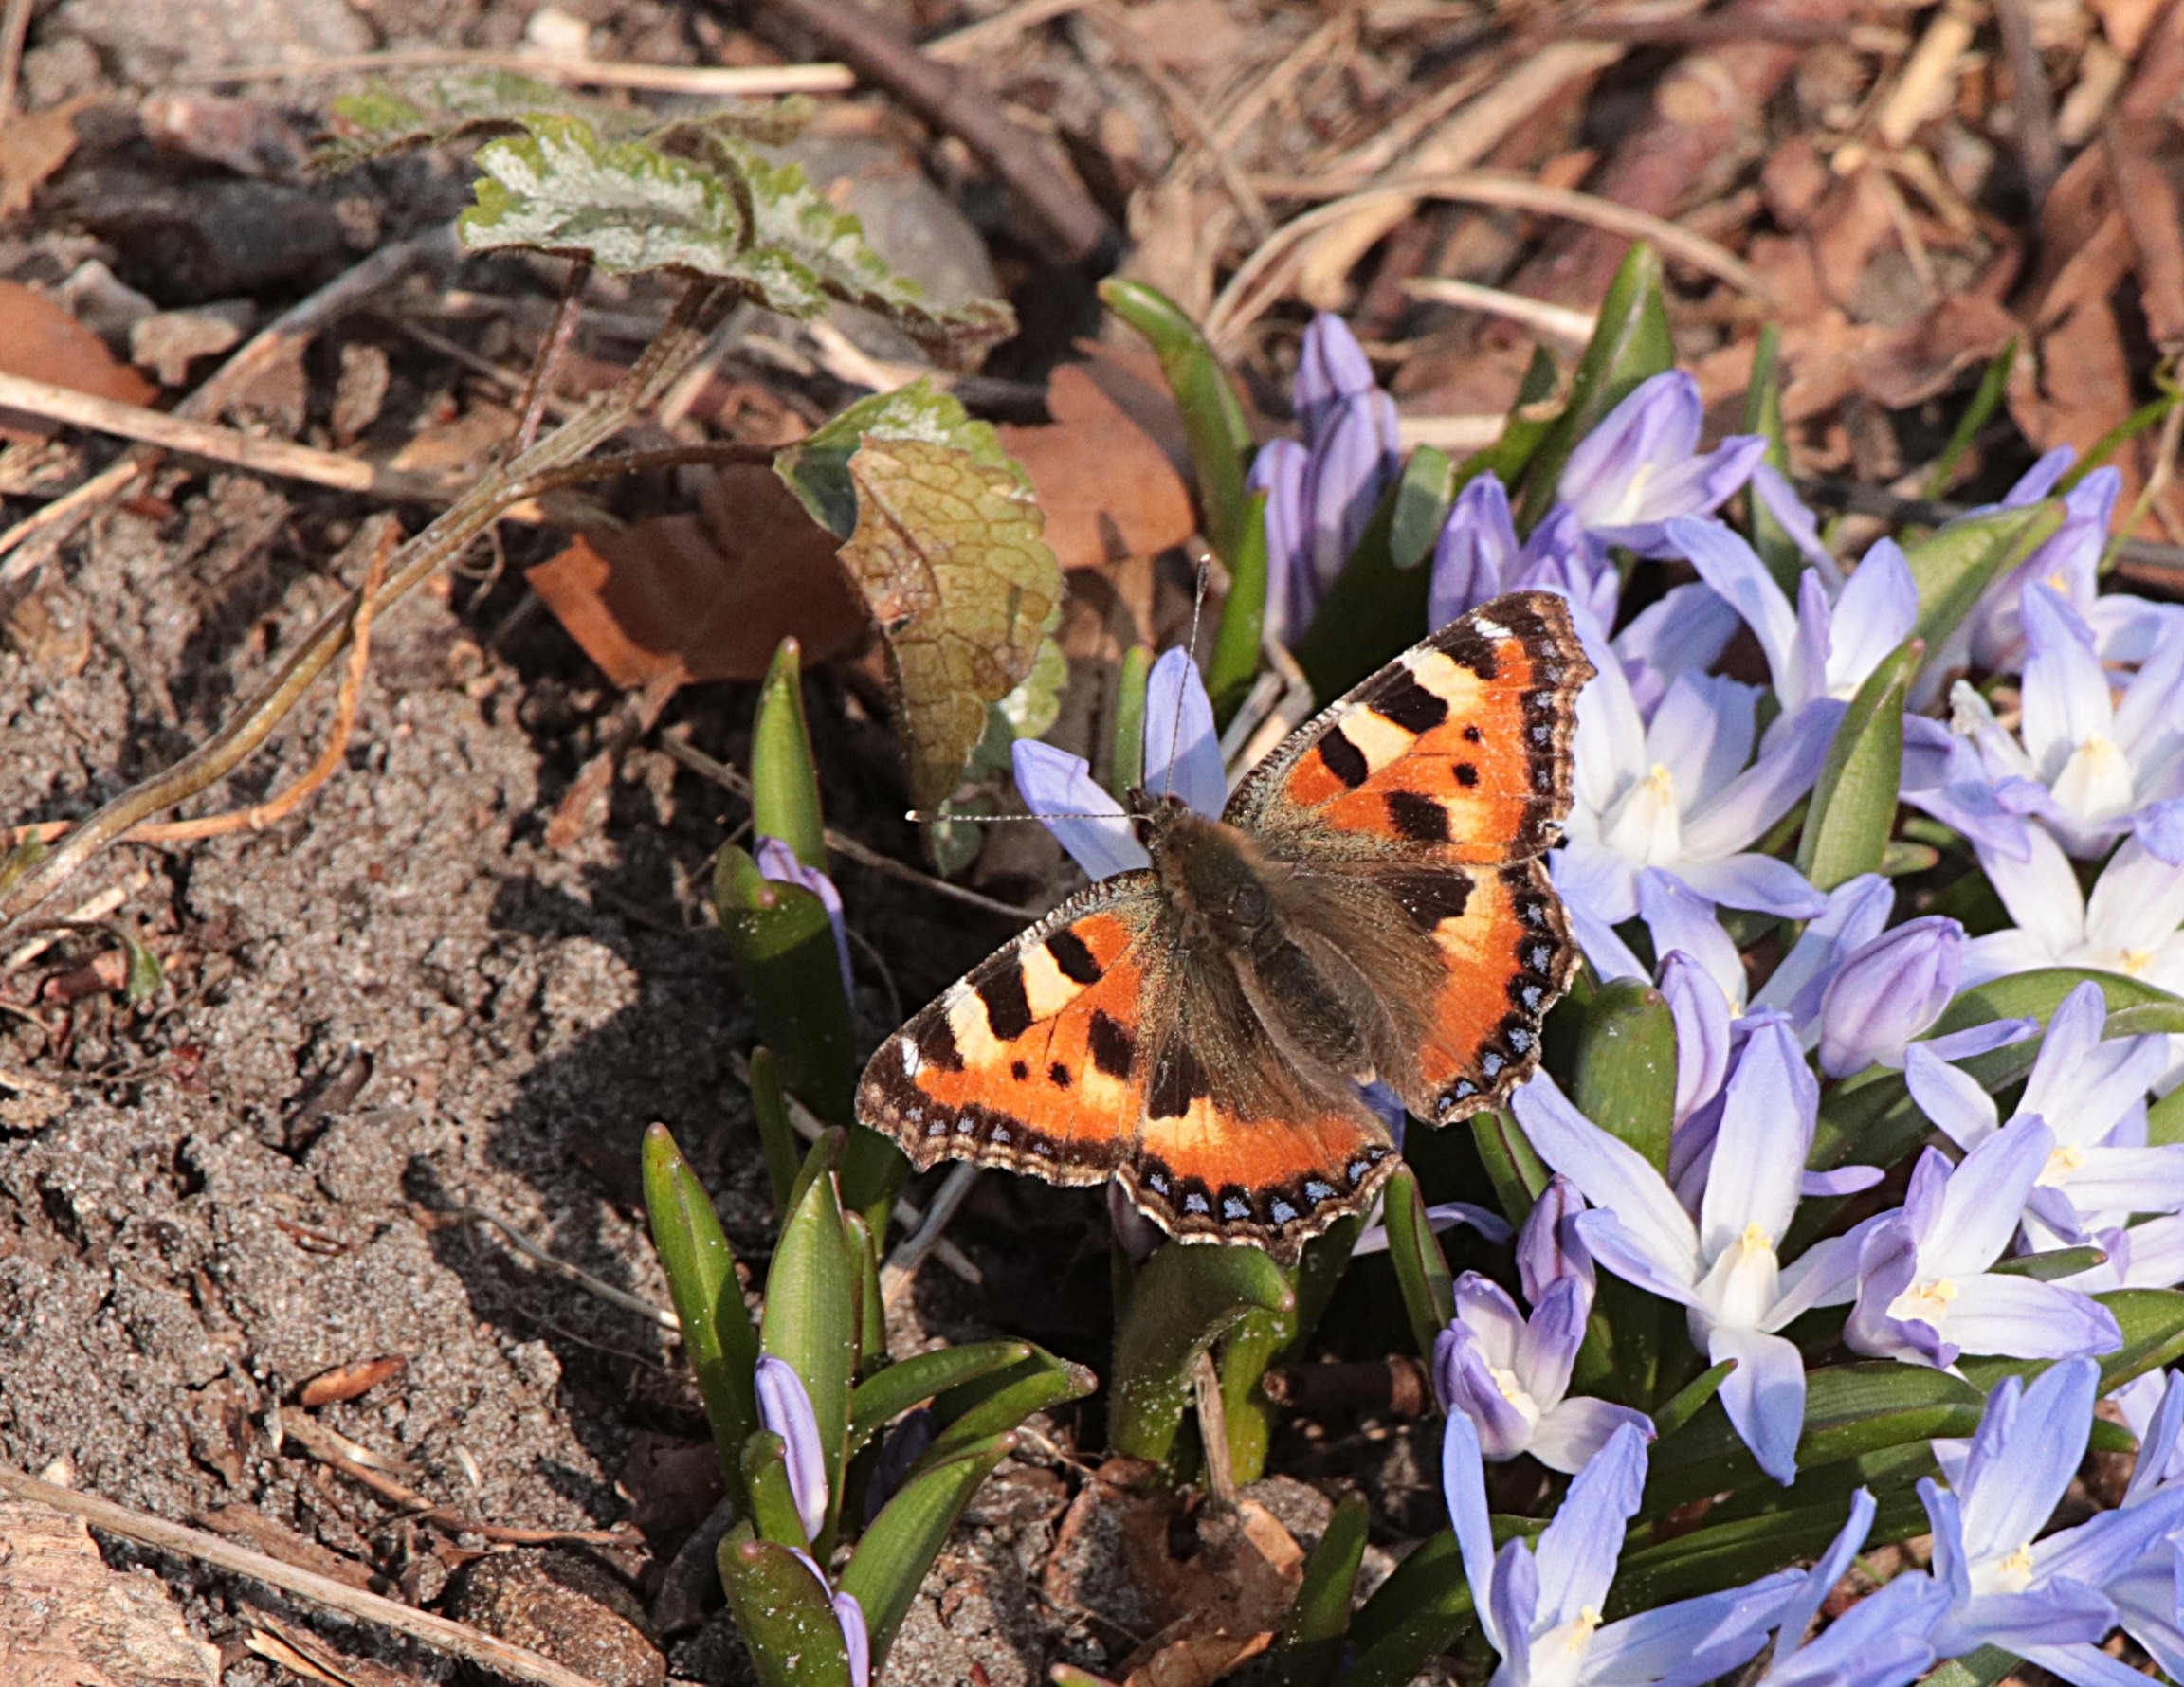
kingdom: Animalia
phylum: Arthropoda
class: Insecta
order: Lepidoptera
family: Nymphalidae
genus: Aglais
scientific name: Aglais urticae
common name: Nældens takvinge
